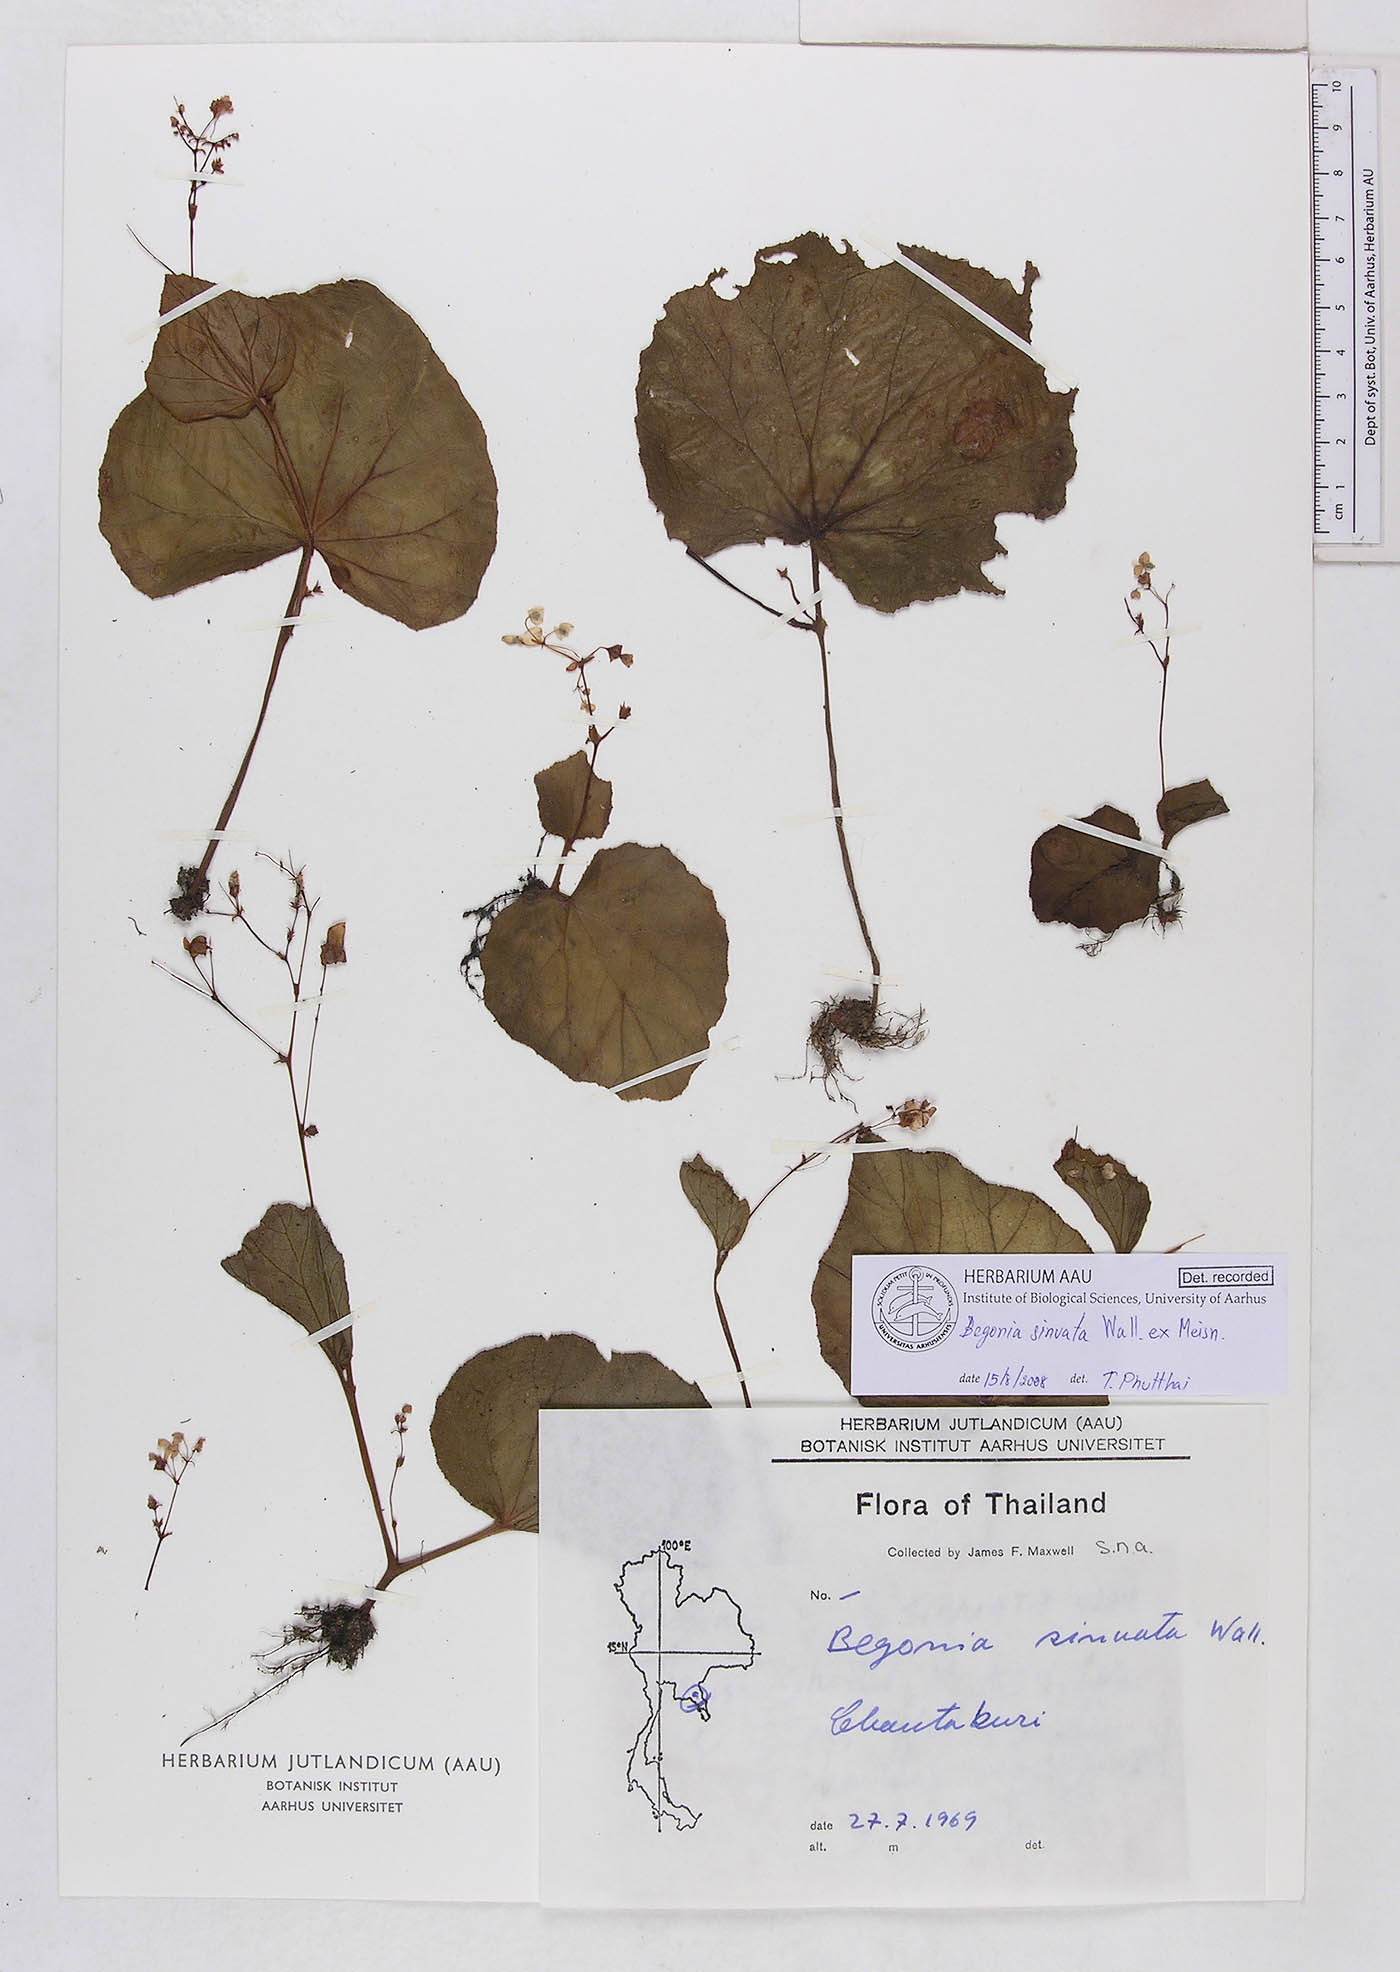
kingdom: Plantae
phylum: Tracheophyta
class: Magnoliopsida
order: Cucurbitales
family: Begoniaceae
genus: Begonia
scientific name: Begonia sinuata
